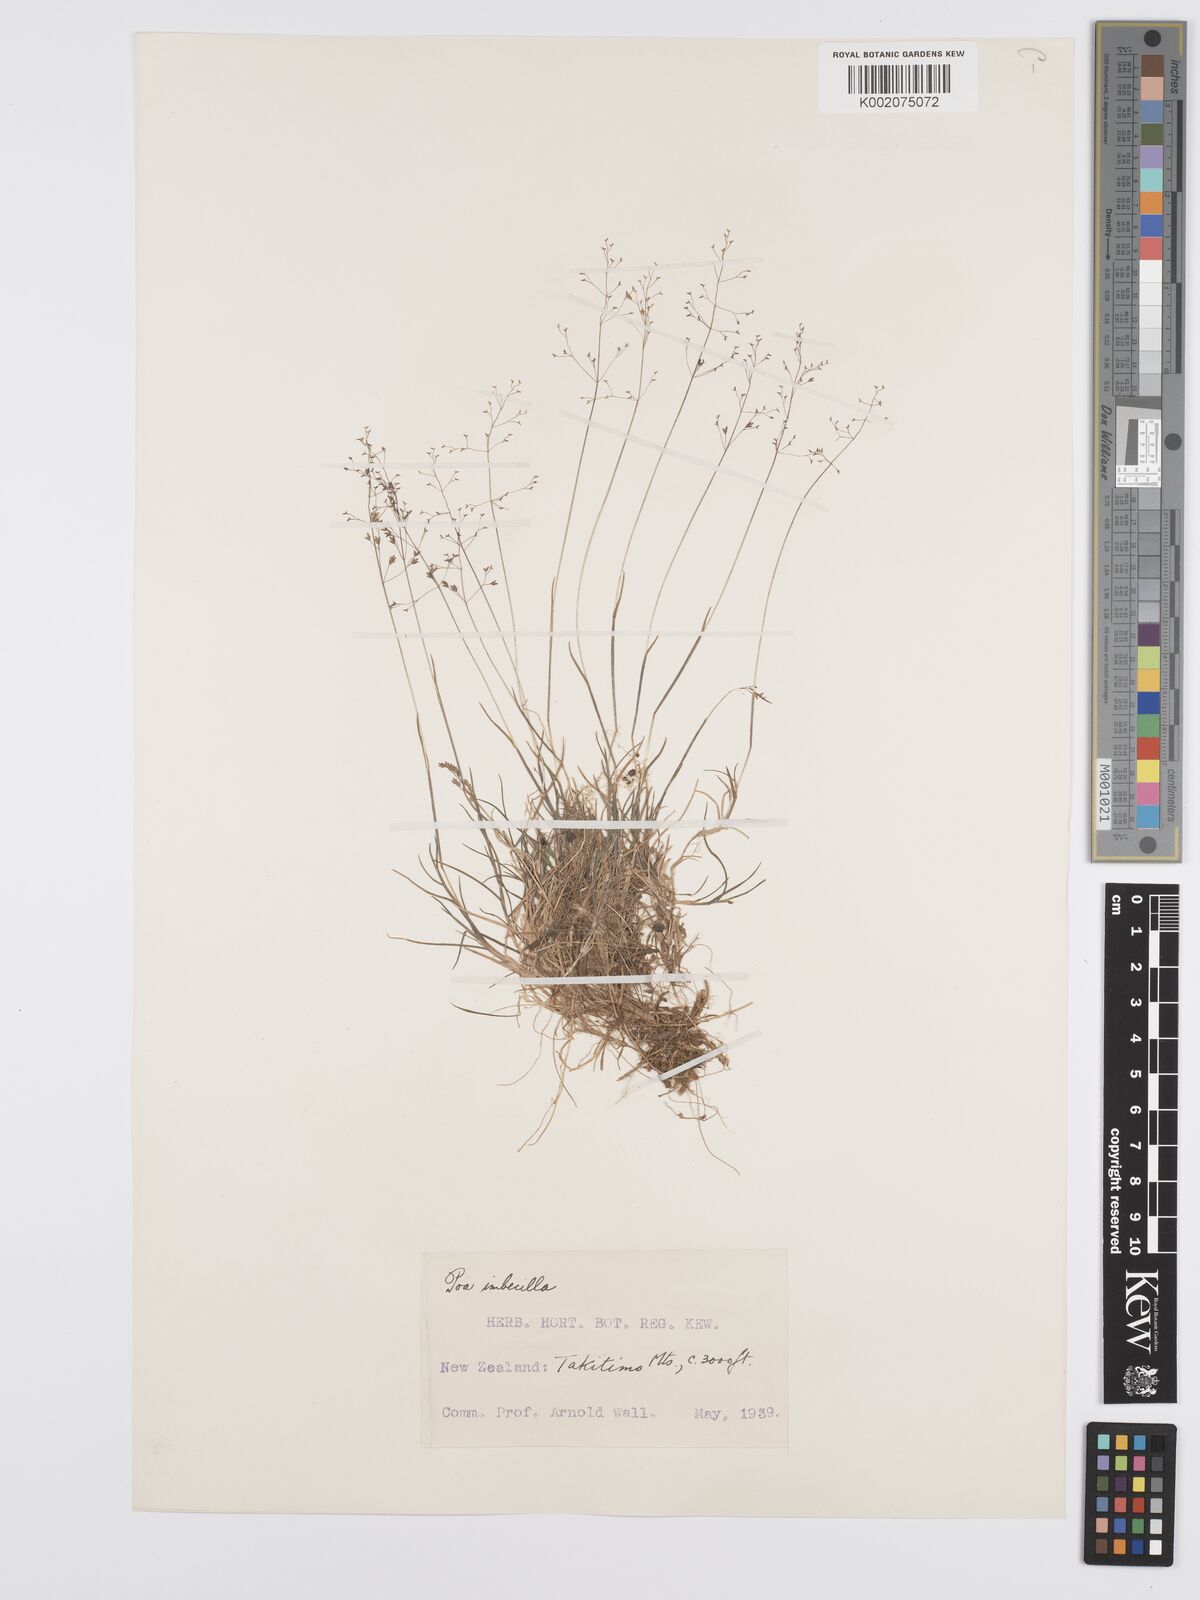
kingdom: Plantae
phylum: Tracheophyta
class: Liliopsida
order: Poales
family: Poaceae
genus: Poa
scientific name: Poa breviglumis
